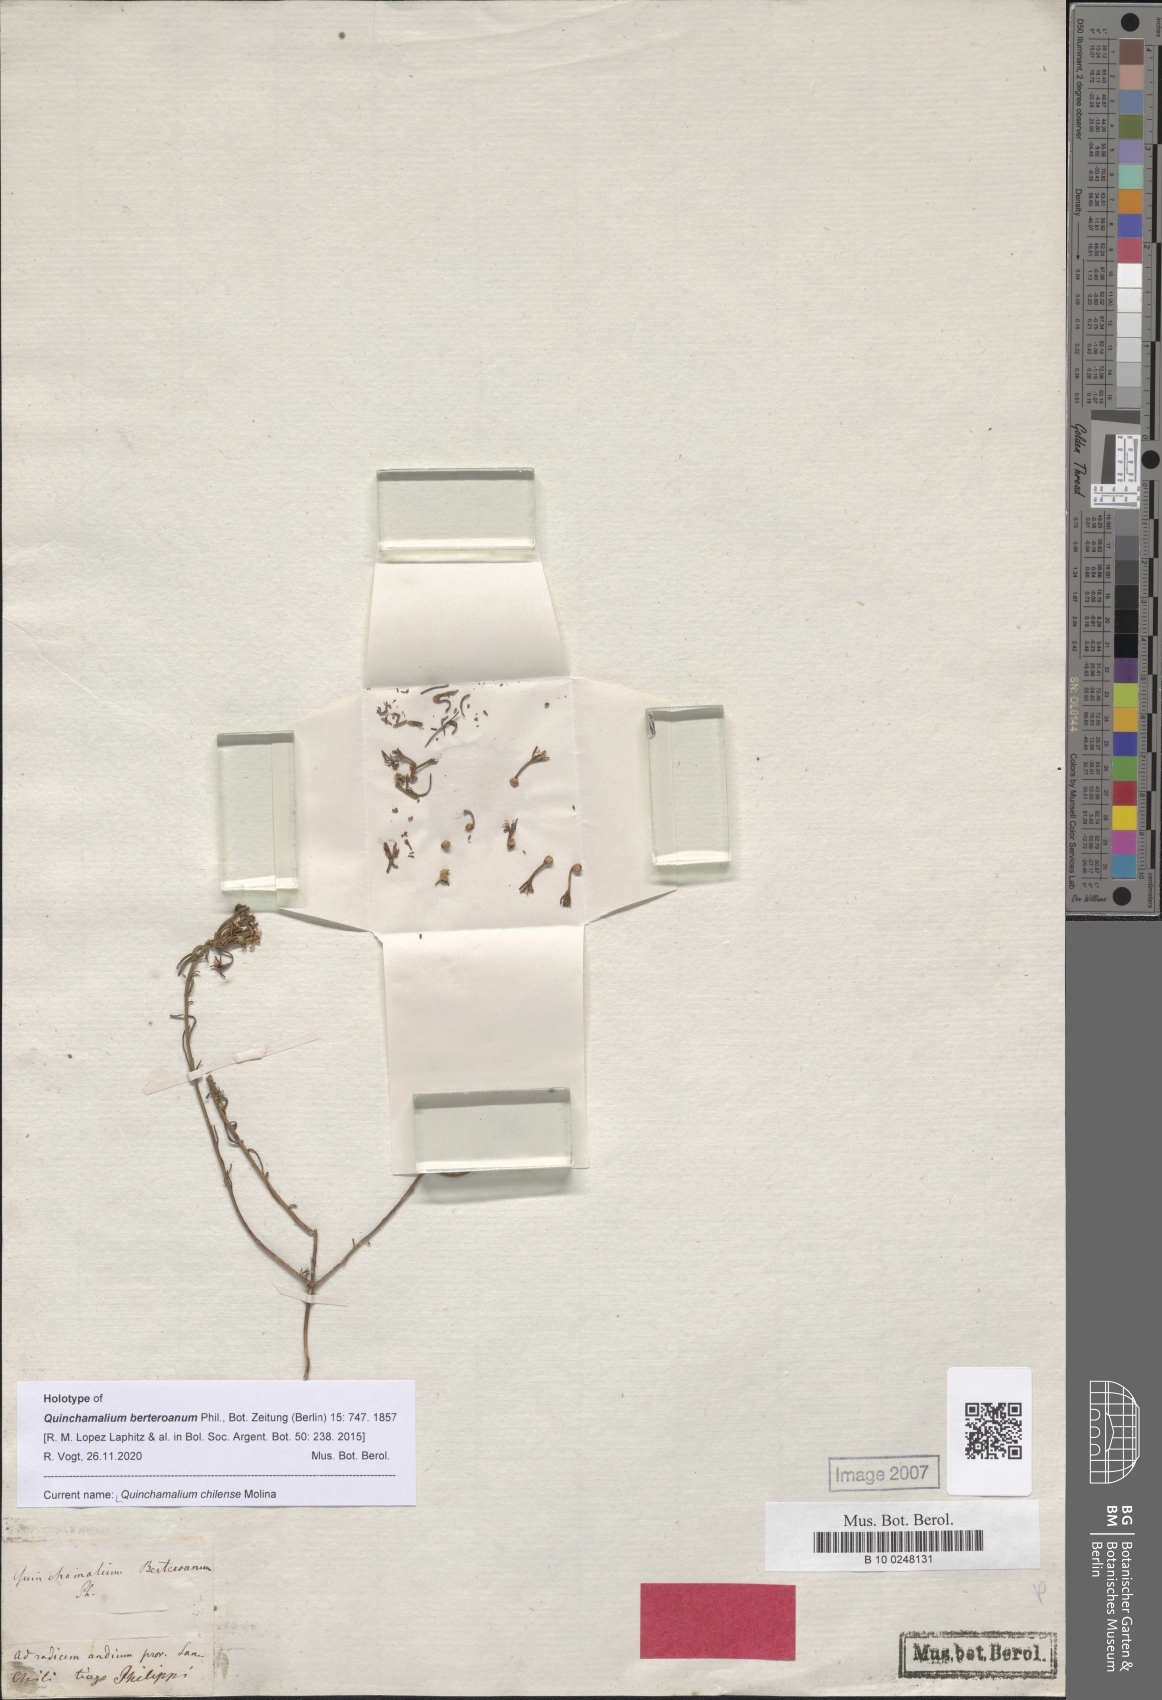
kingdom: Plantae
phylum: Tracheophyta
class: Magnoliopsida
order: Santalales
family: Schoepfiaceae
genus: Quinchamalium
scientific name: Quinchamalium chilense
